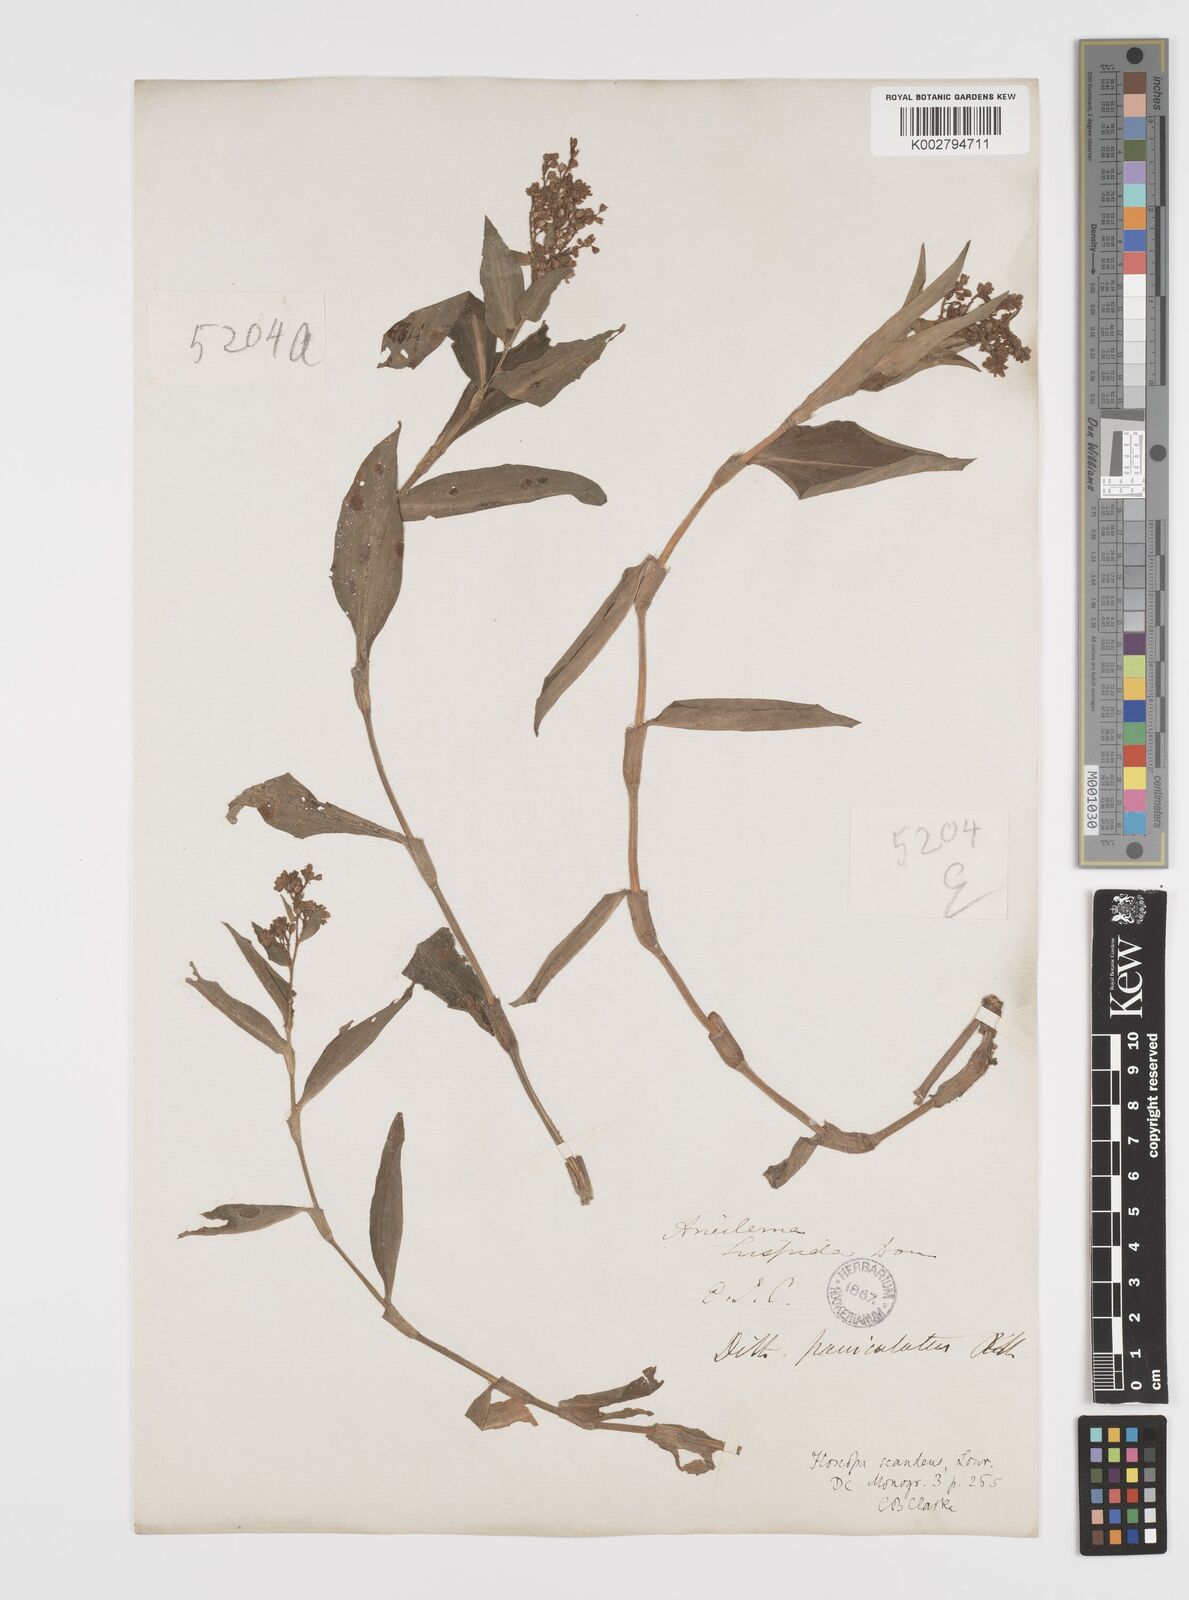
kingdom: Plantae
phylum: Tracheophyta
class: Liliopsida
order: Commelinales
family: Commelinaceae
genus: Floscopa
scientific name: Floscopa scandens
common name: Climbing flower cup
